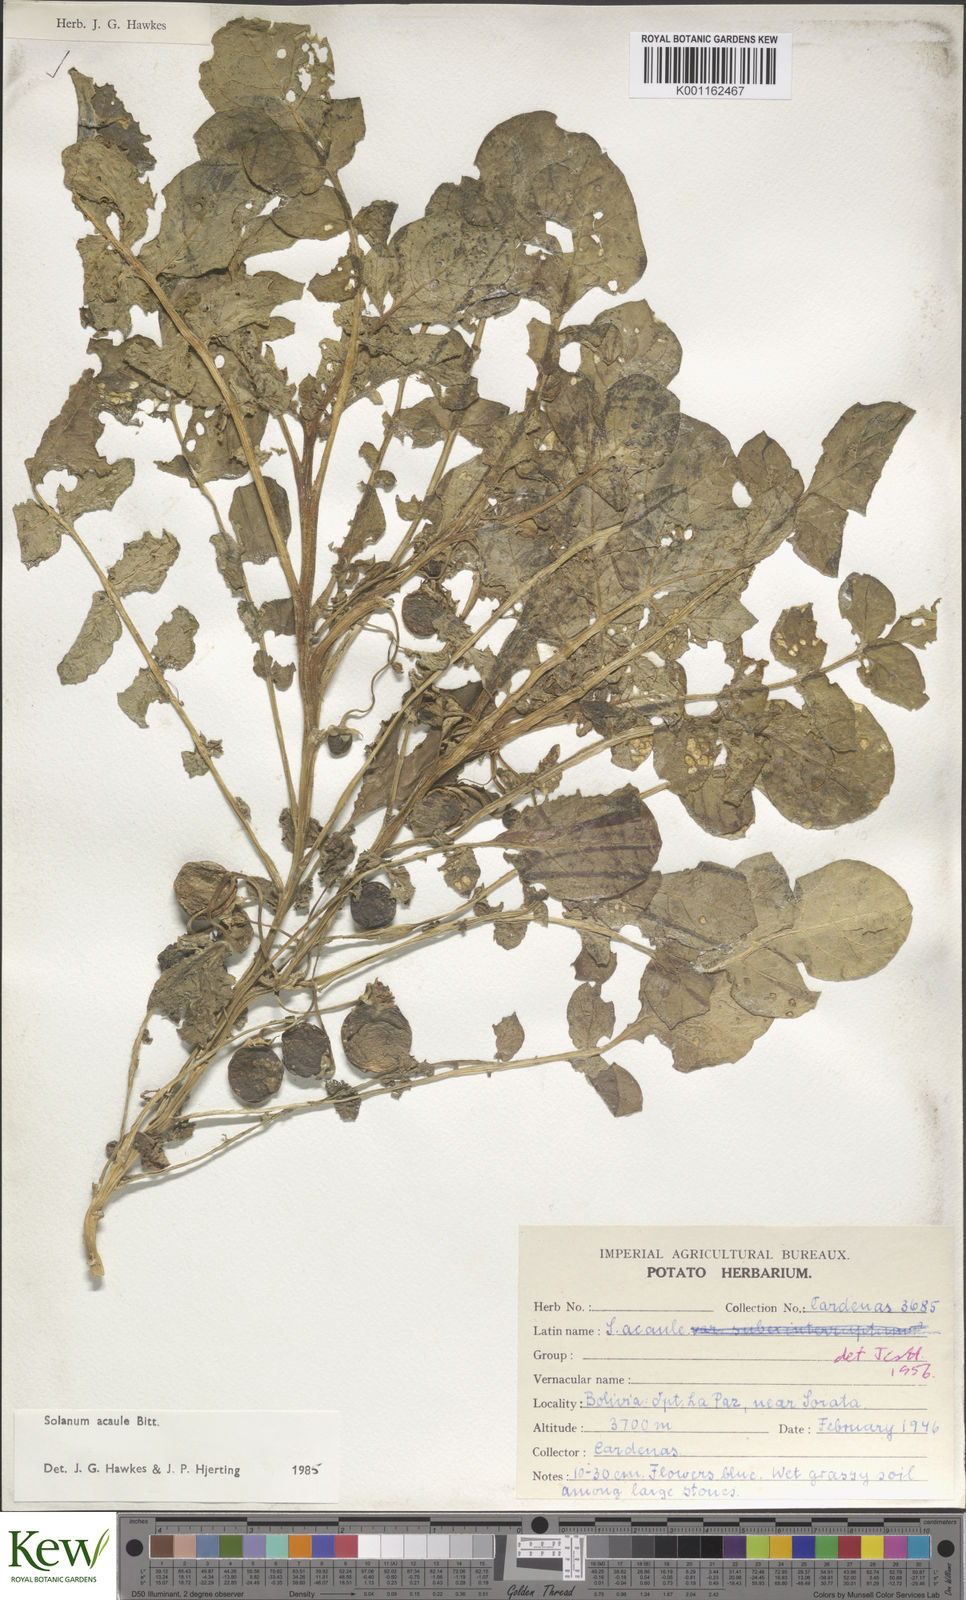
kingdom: Plantae
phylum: Tracheophyta
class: Magnoliopsida
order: Solanales
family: Solanaceae
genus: Solanum
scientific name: Solanum acaule
